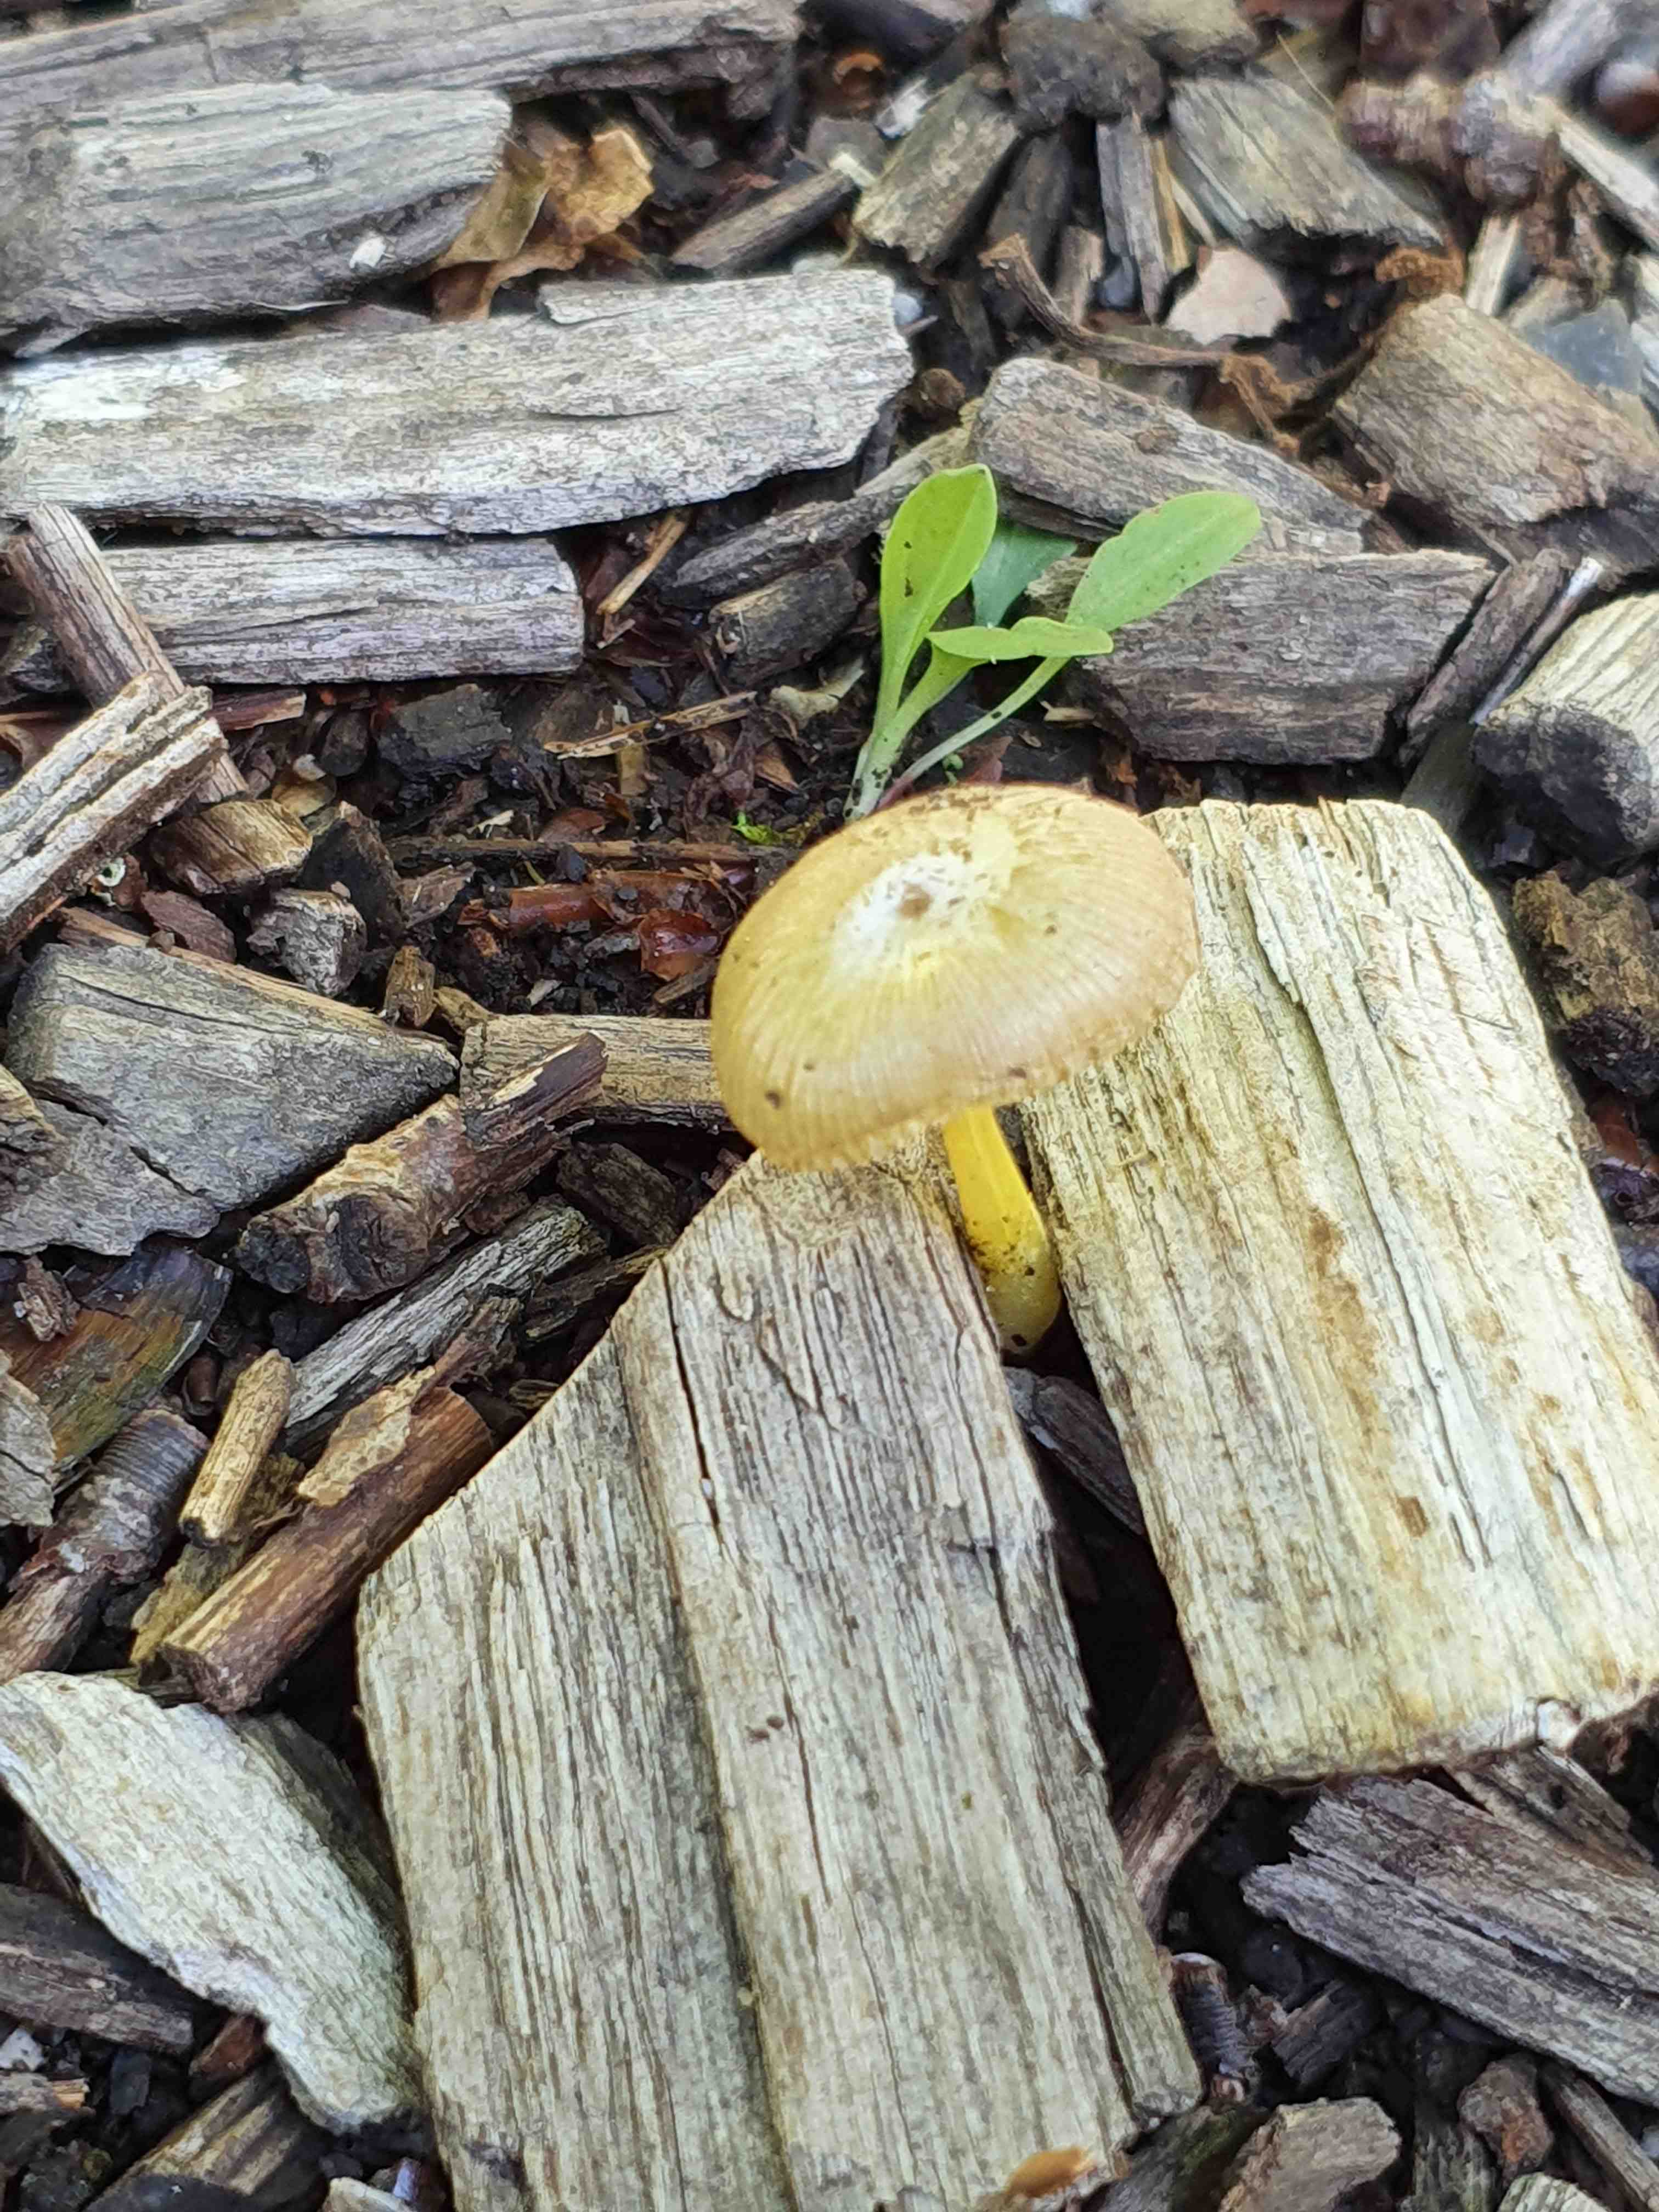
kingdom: Fungi
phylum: Basidiomycota
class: Agaricomycetes
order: Agaricales
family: Bolbitiaceae
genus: Bolbitius
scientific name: Bolbitius titubans
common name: almindelig gulhat
